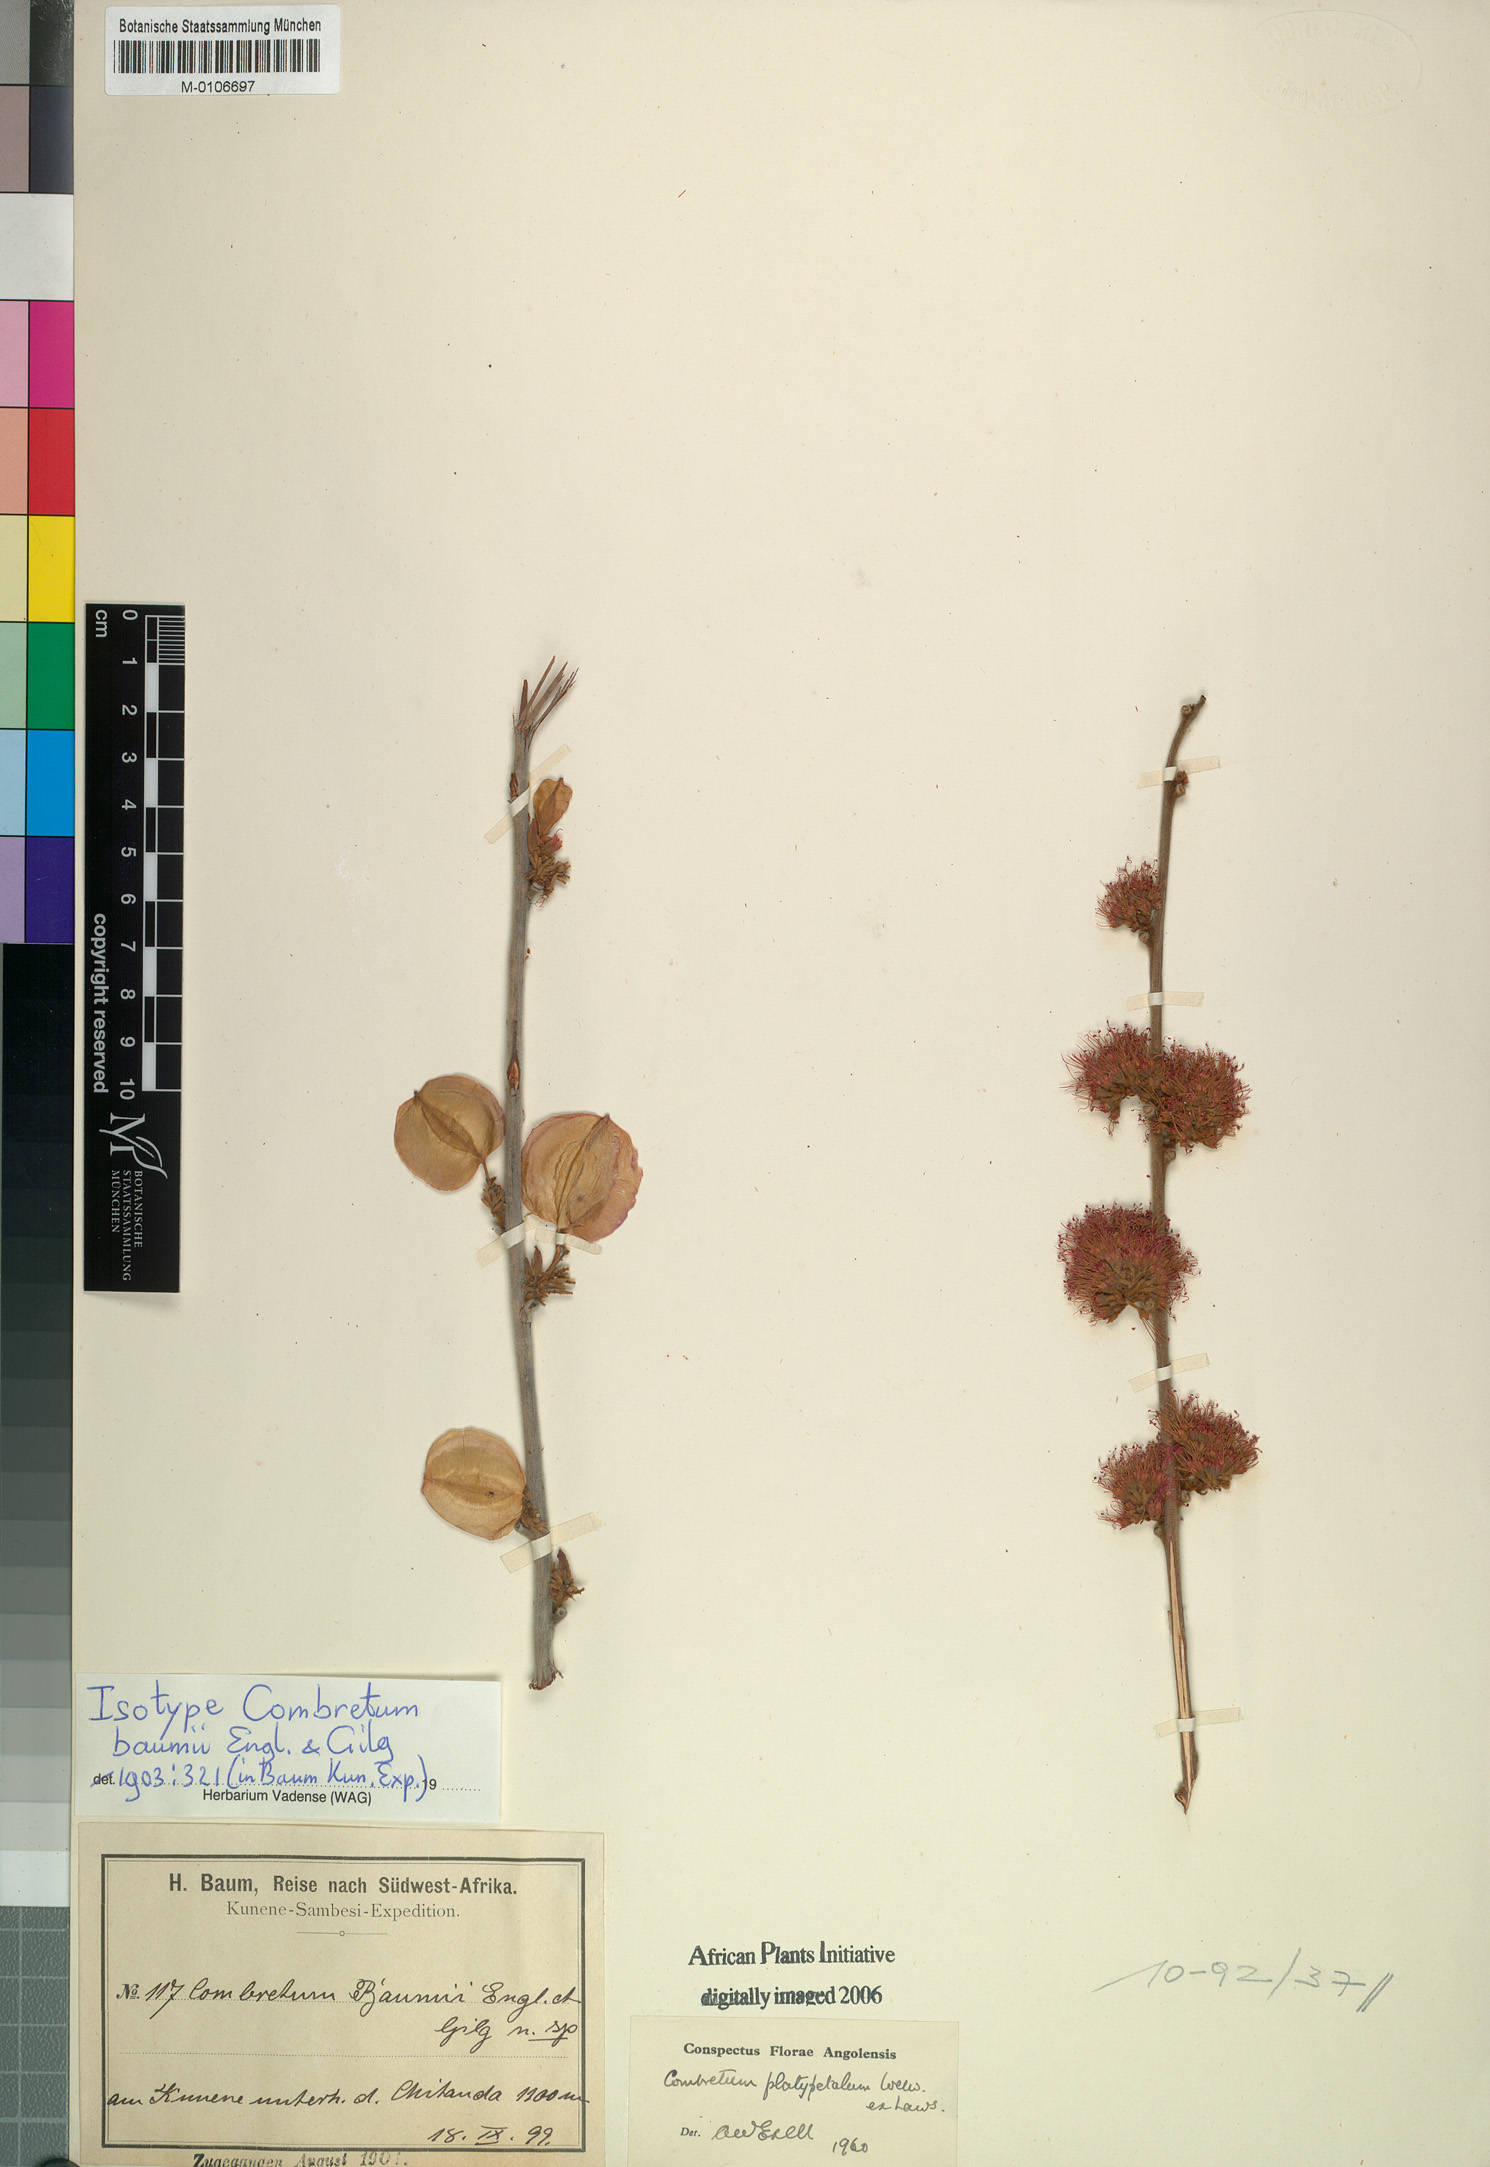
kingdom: Plantae
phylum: Tracheophyta
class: Magnoliopsida
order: Myrtales
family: Combretaceae
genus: Combretum
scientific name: Combretum platypetalum
